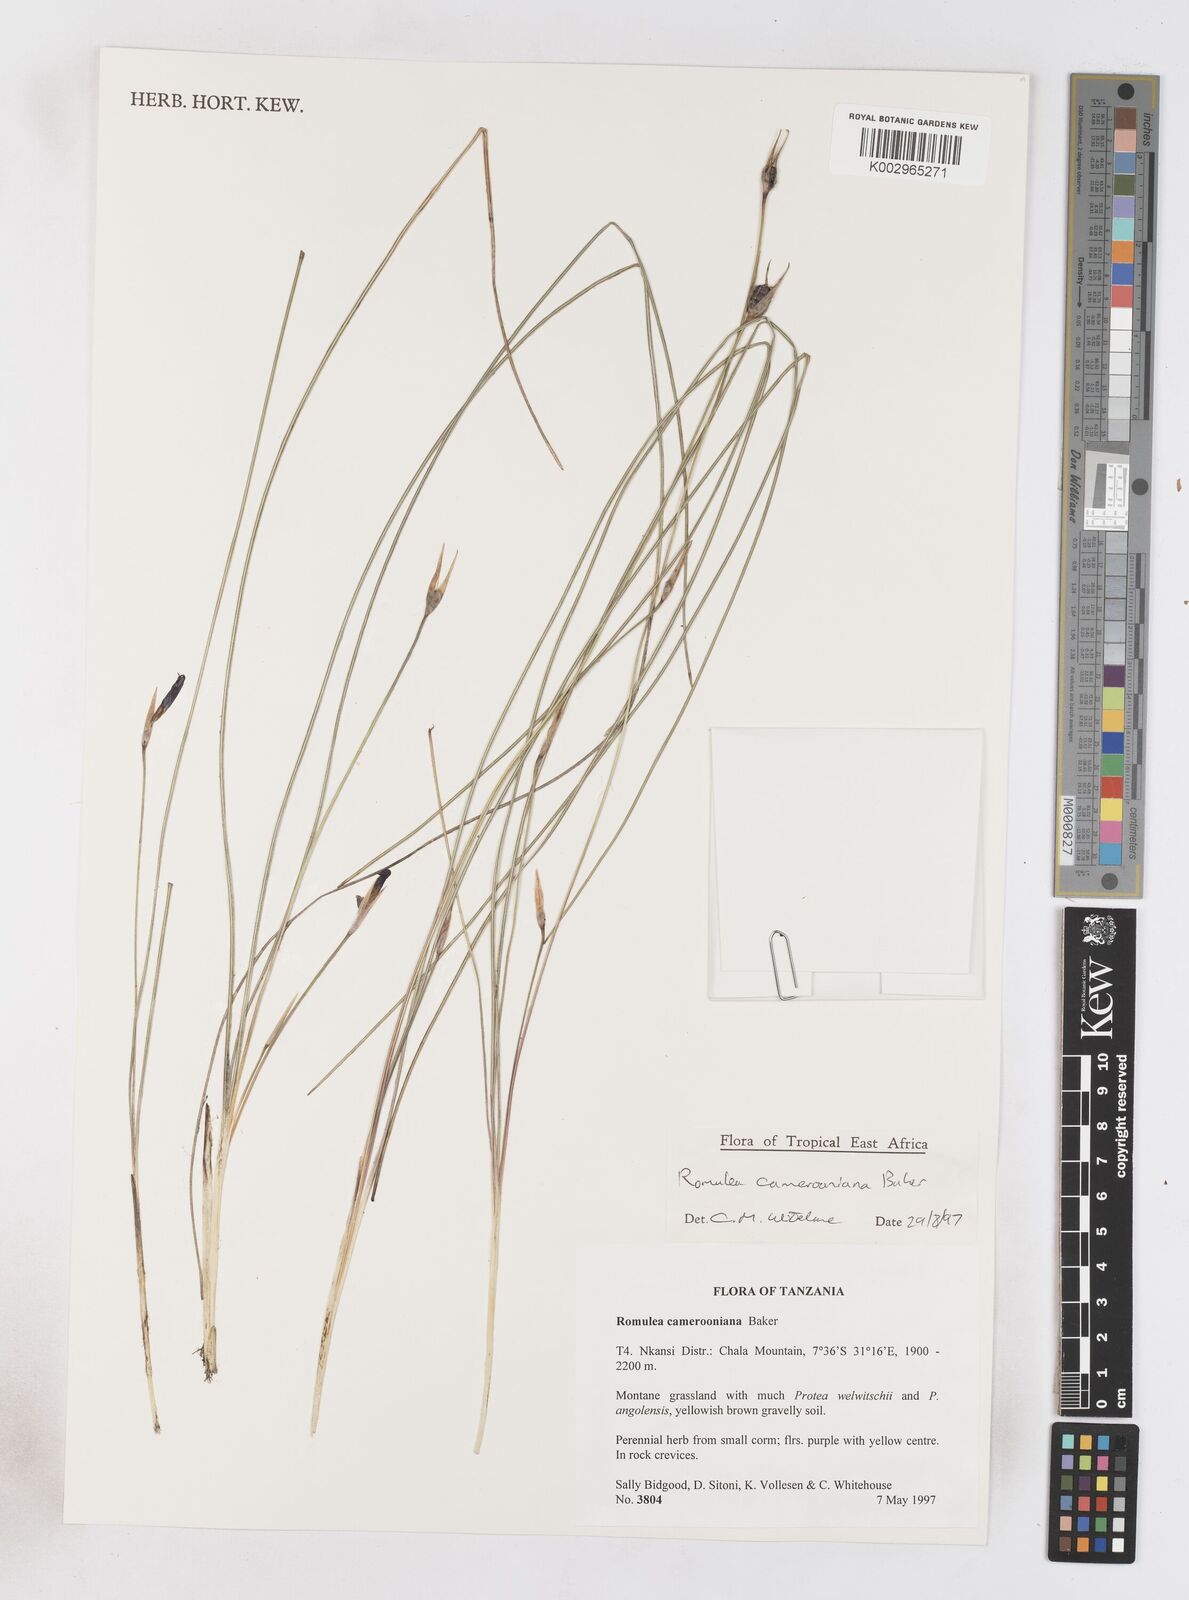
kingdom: Plantae
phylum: Tracheophyta
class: Liliopsida
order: Asparagales
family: Iridaceae
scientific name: Iridaceae
